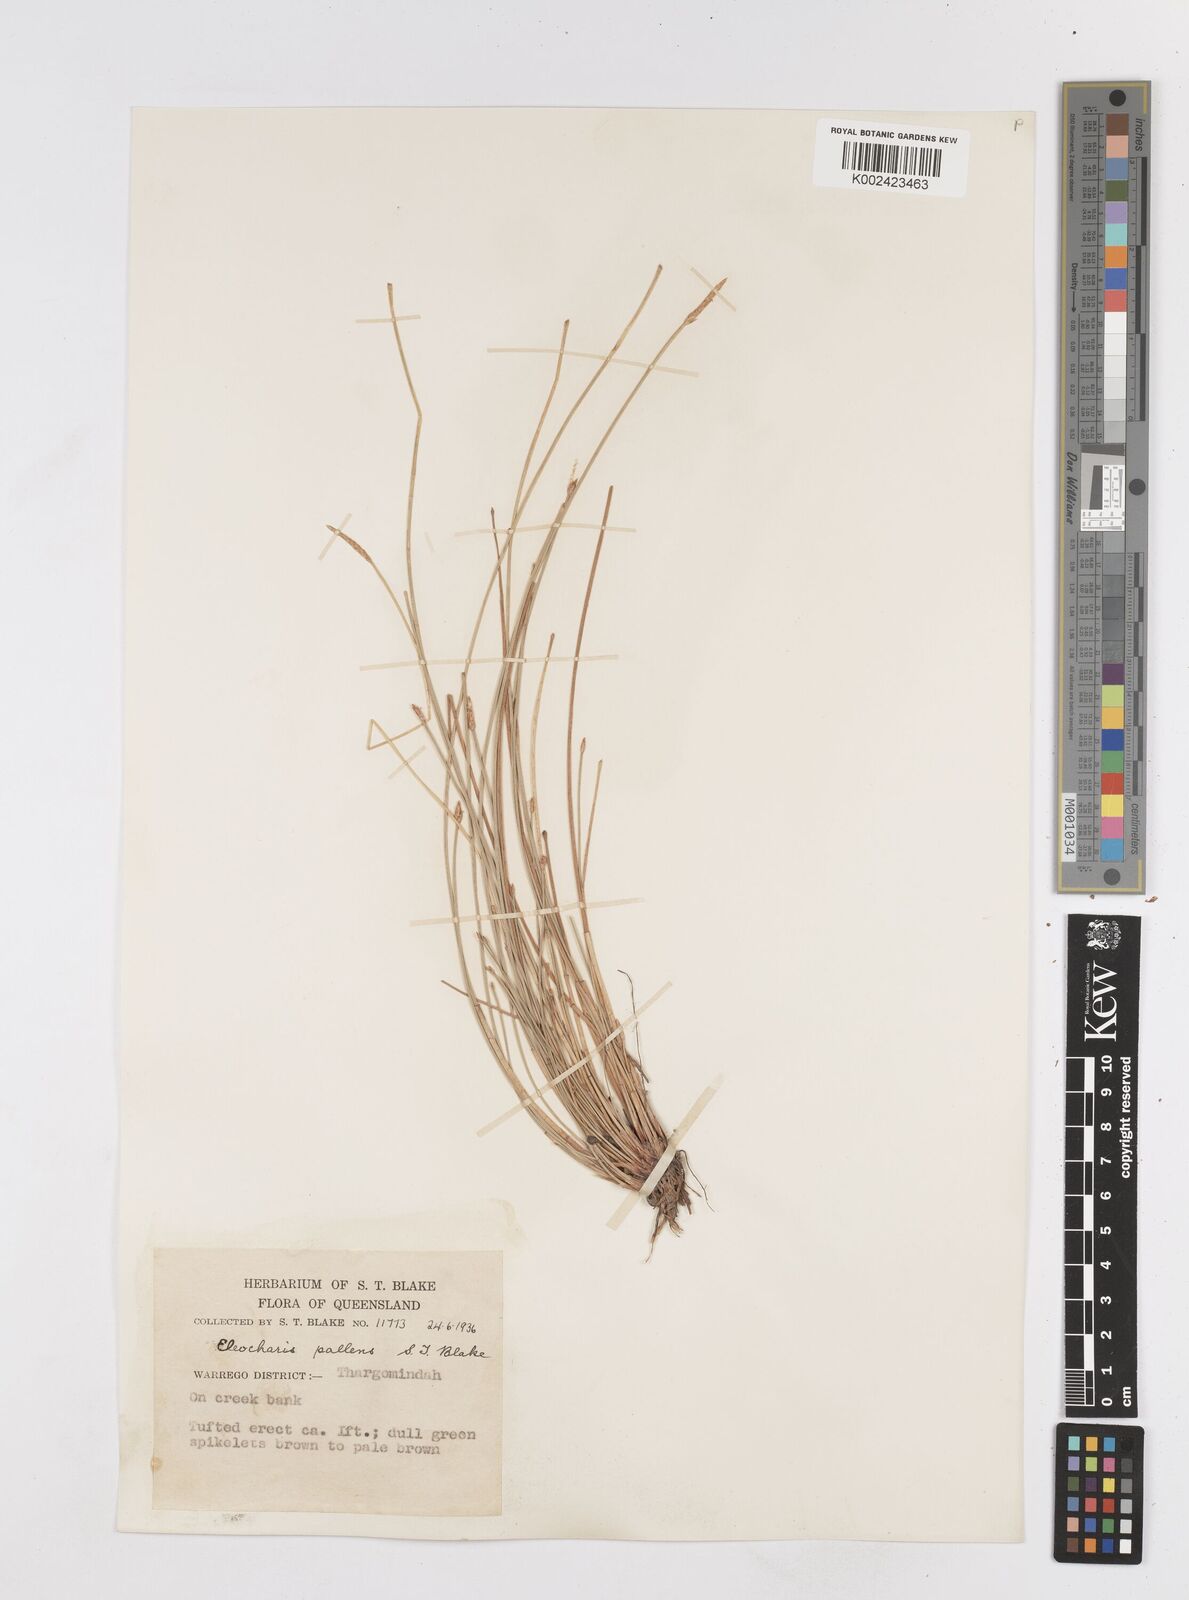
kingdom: Plantae
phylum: Tracheophyta
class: Liliopsida
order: Poales
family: Cyperaceae
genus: Eleocharis
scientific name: Eleocharis acuta
